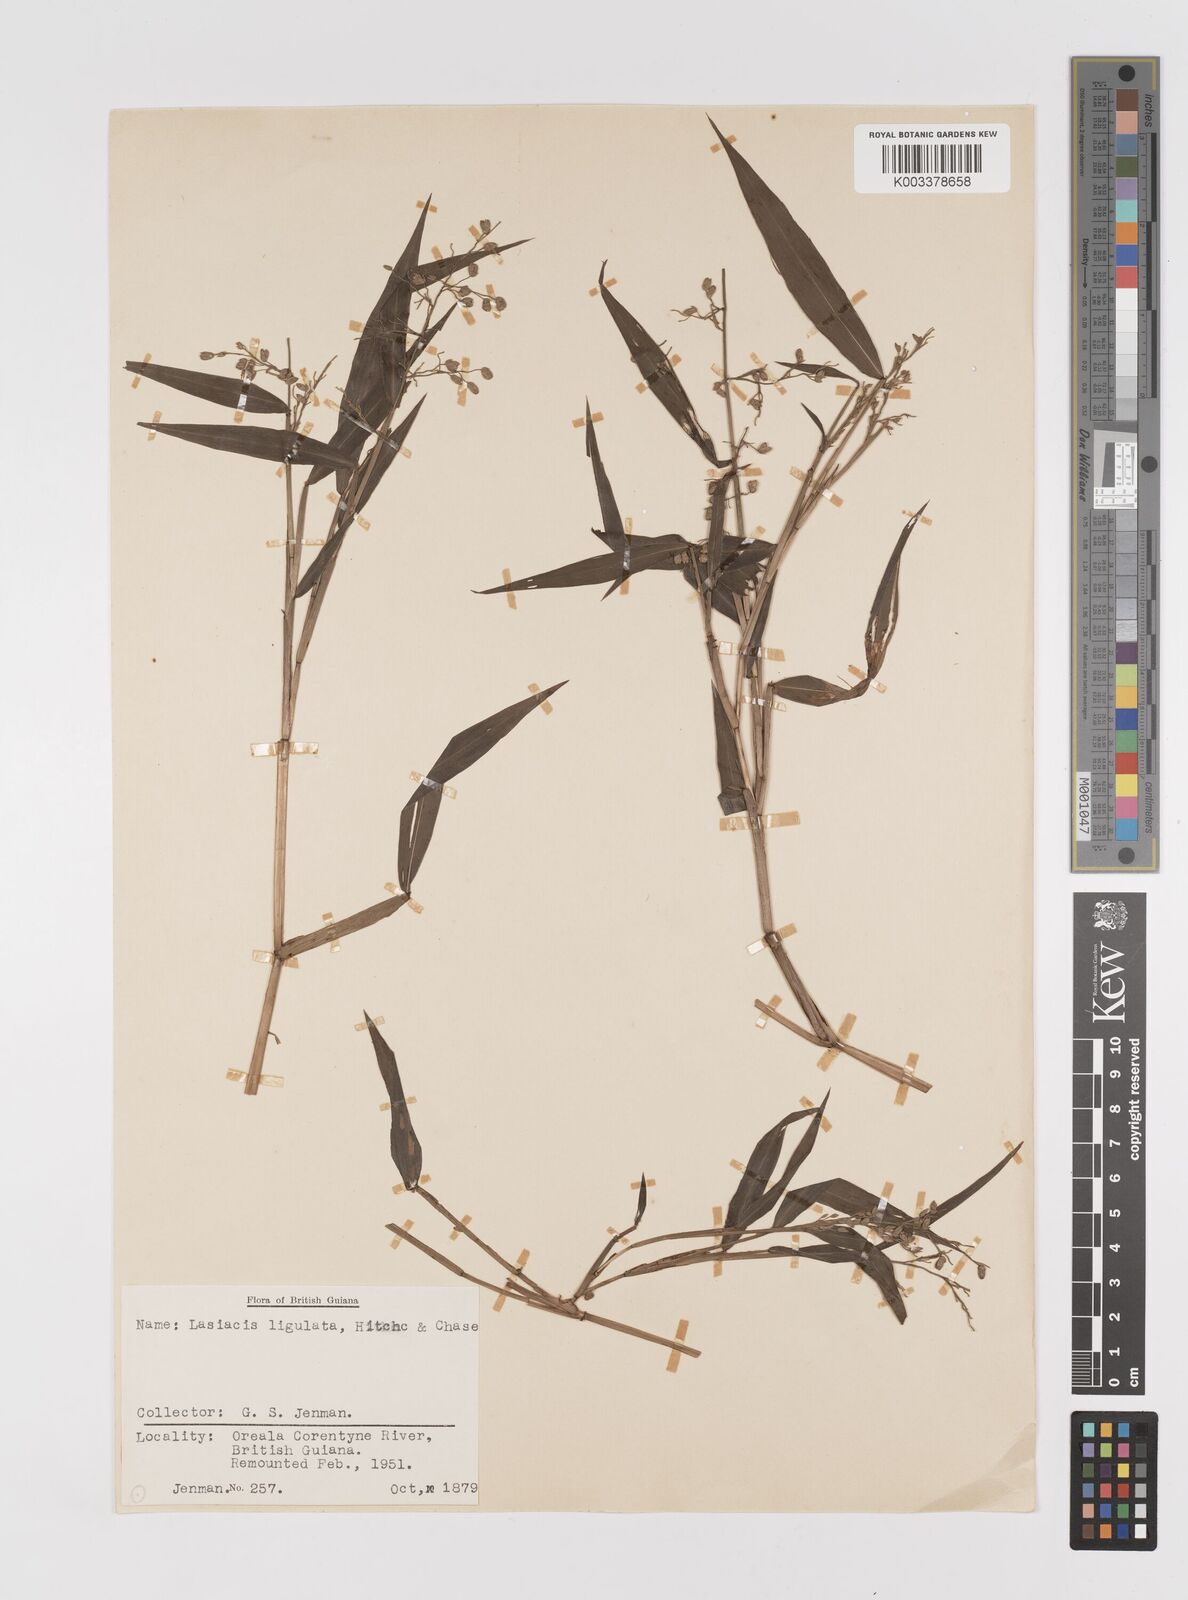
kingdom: Plantae
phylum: Tracheophyta
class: Liliopsida
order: Poales
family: Poaceae
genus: Lasiacis
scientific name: Lasiacis ligulata
